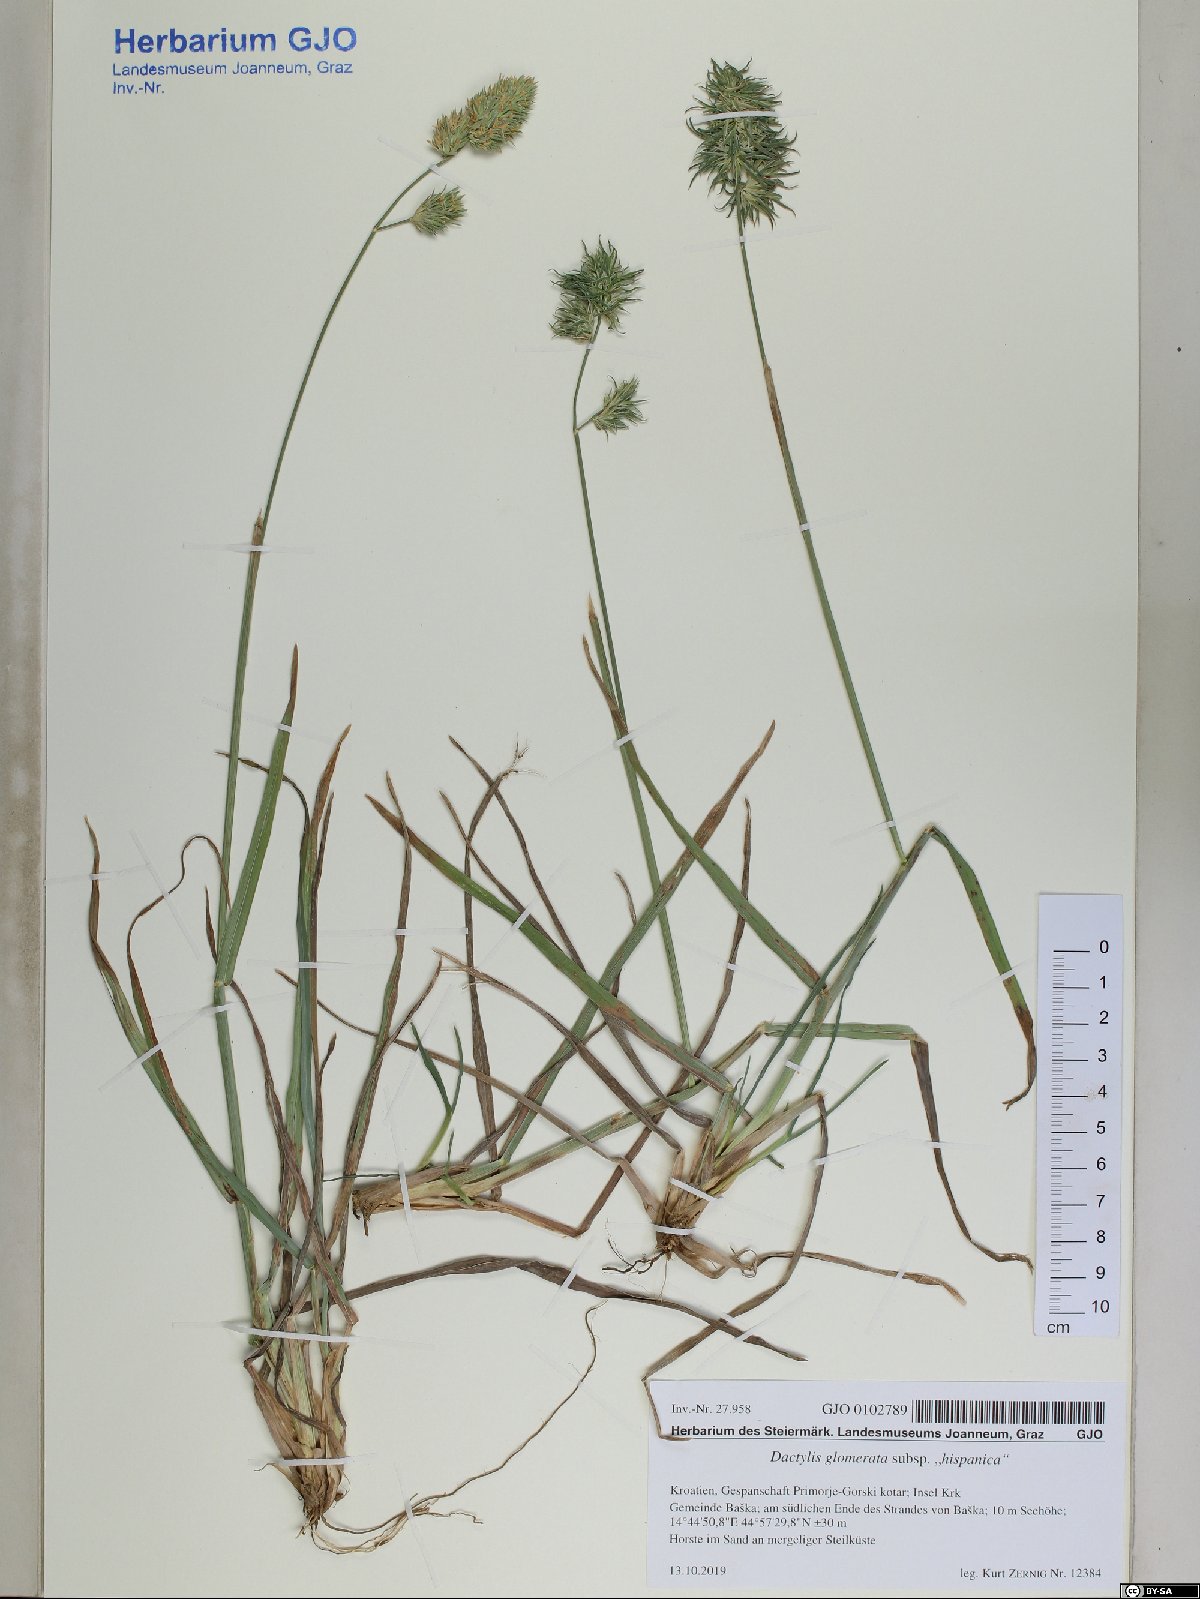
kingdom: Plantae
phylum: Tracheophyta
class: Liliopsida
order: Poales
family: Poaceae
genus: Dactylis
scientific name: Dactylis glomerata
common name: Orchardgrass
